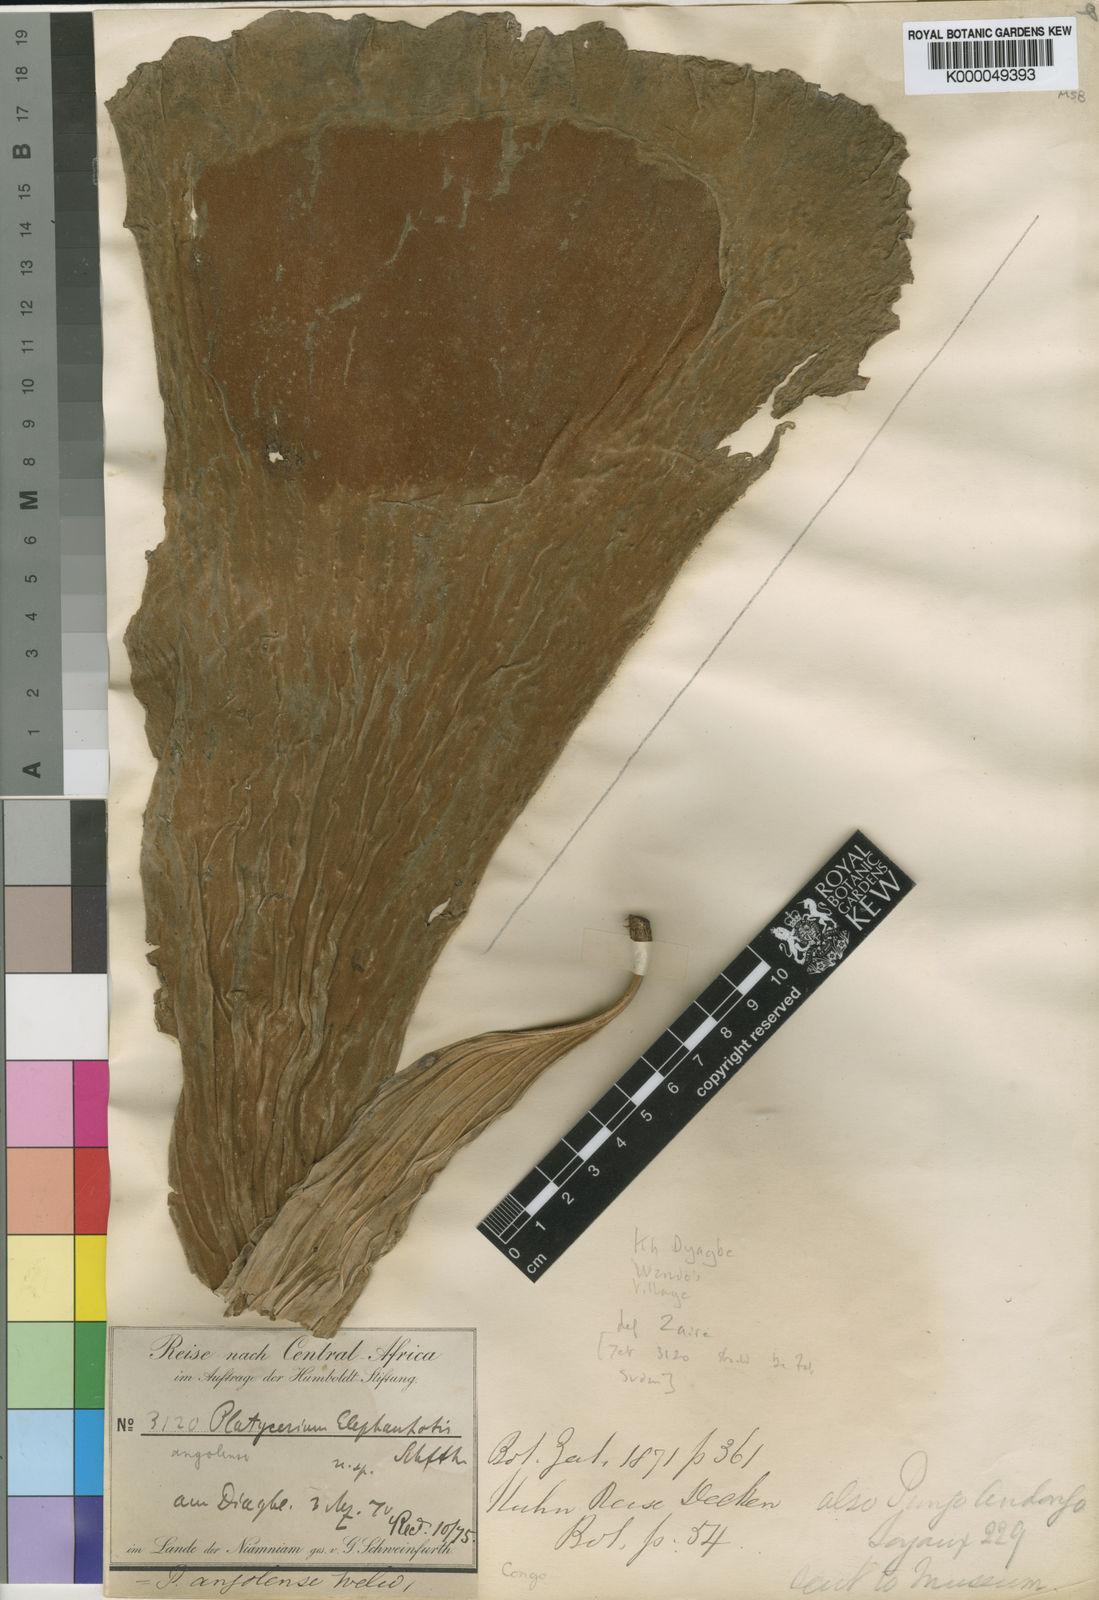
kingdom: Plantae
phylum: Tracheophyta
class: Polypodiopsida
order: Polypodiales
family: Polypodiaceae
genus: Platycerium
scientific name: Platycerium elephantotis
